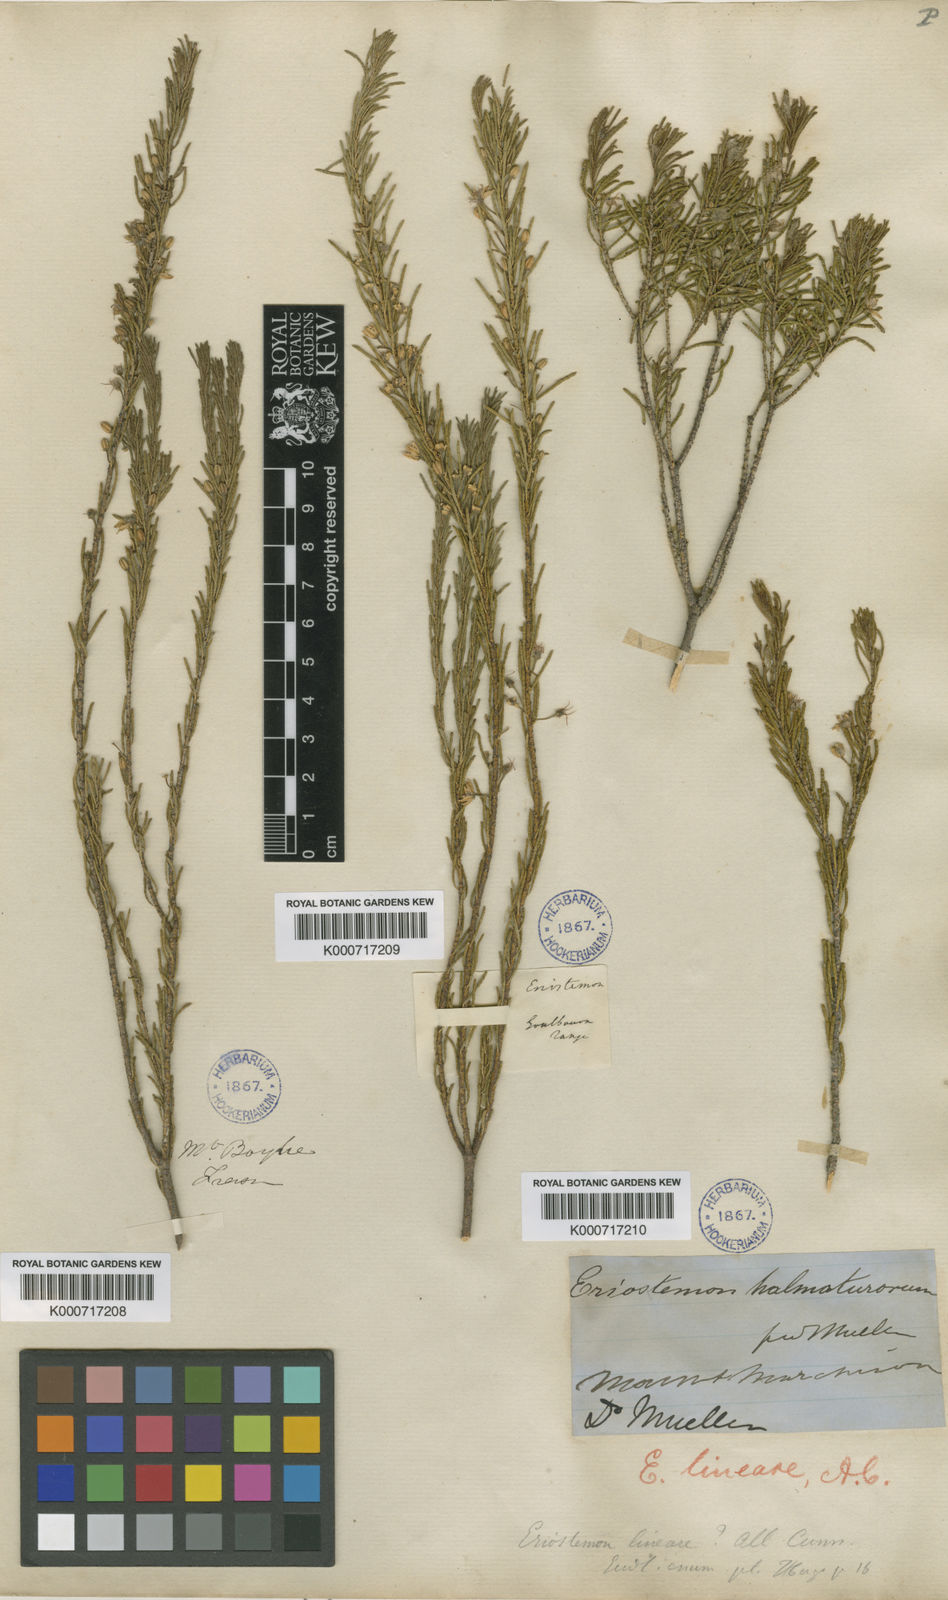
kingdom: Plantae
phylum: Tracheophyta
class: Magnoliopsida
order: Sapindales
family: Rutaceae
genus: Philotheca
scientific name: Philotheca linearis
